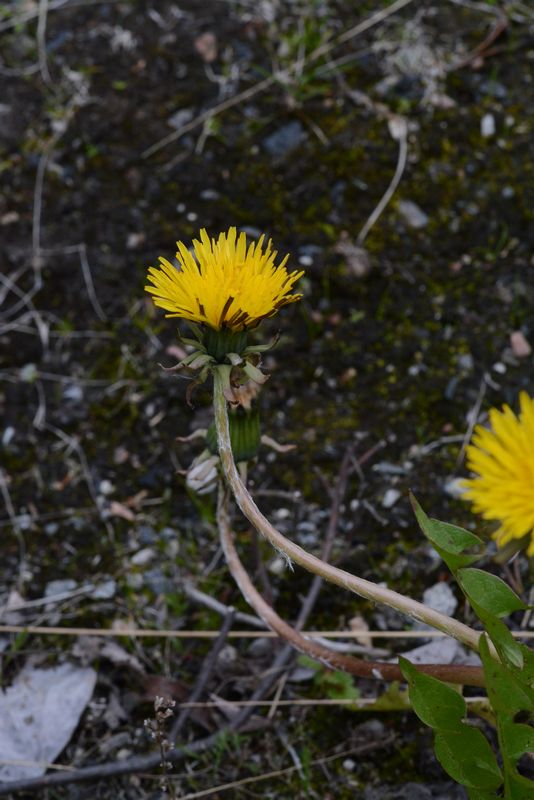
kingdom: Plantae
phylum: Tracheophyta
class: Magnoliopsida
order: Asterales
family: Asteraceae
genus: Taraxacum
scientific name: Taraxacum croceum
